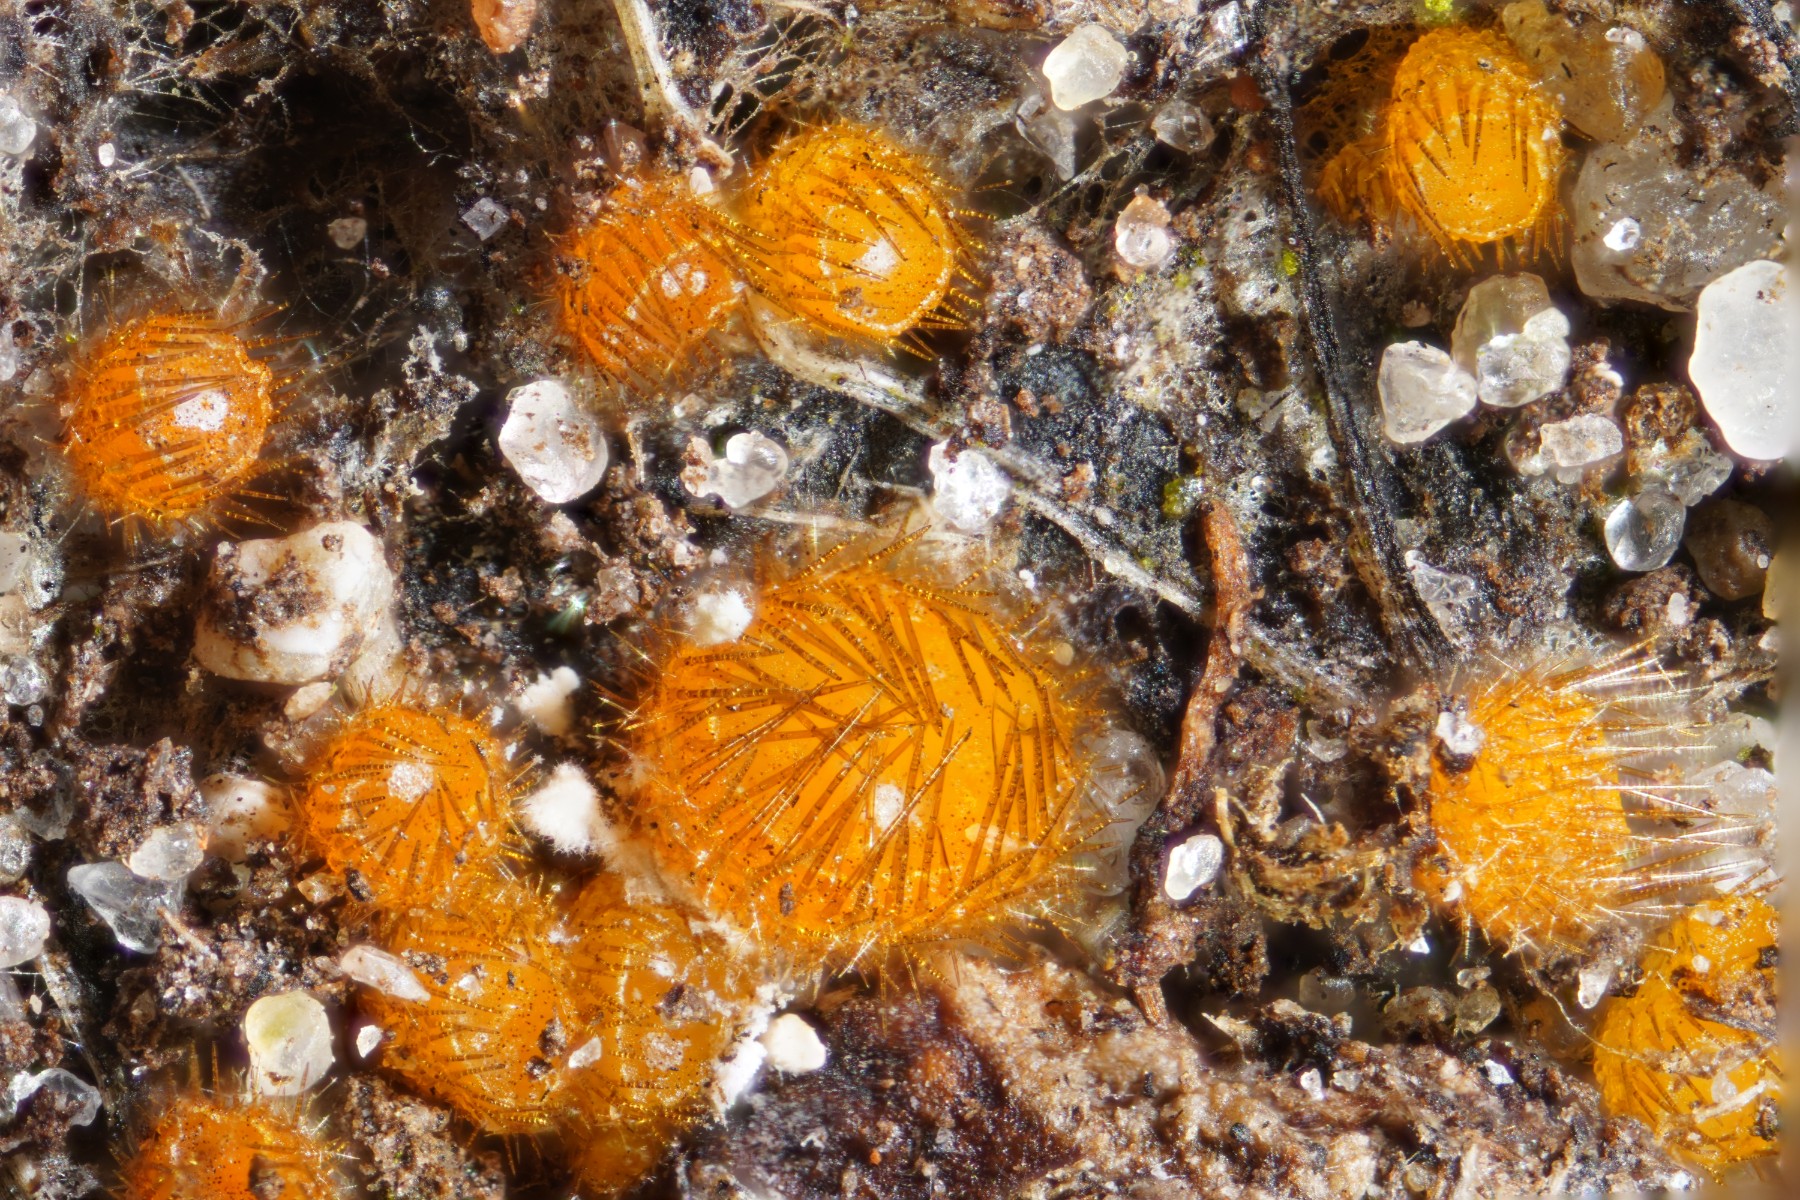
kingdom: Fungi
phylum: Ascomycota
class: Pezizomycetes
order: Pezizales
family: Pyronemataceae
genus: Cheilymenia
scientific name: Cheilymenia stercorea
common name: gødnings-hårbæger
